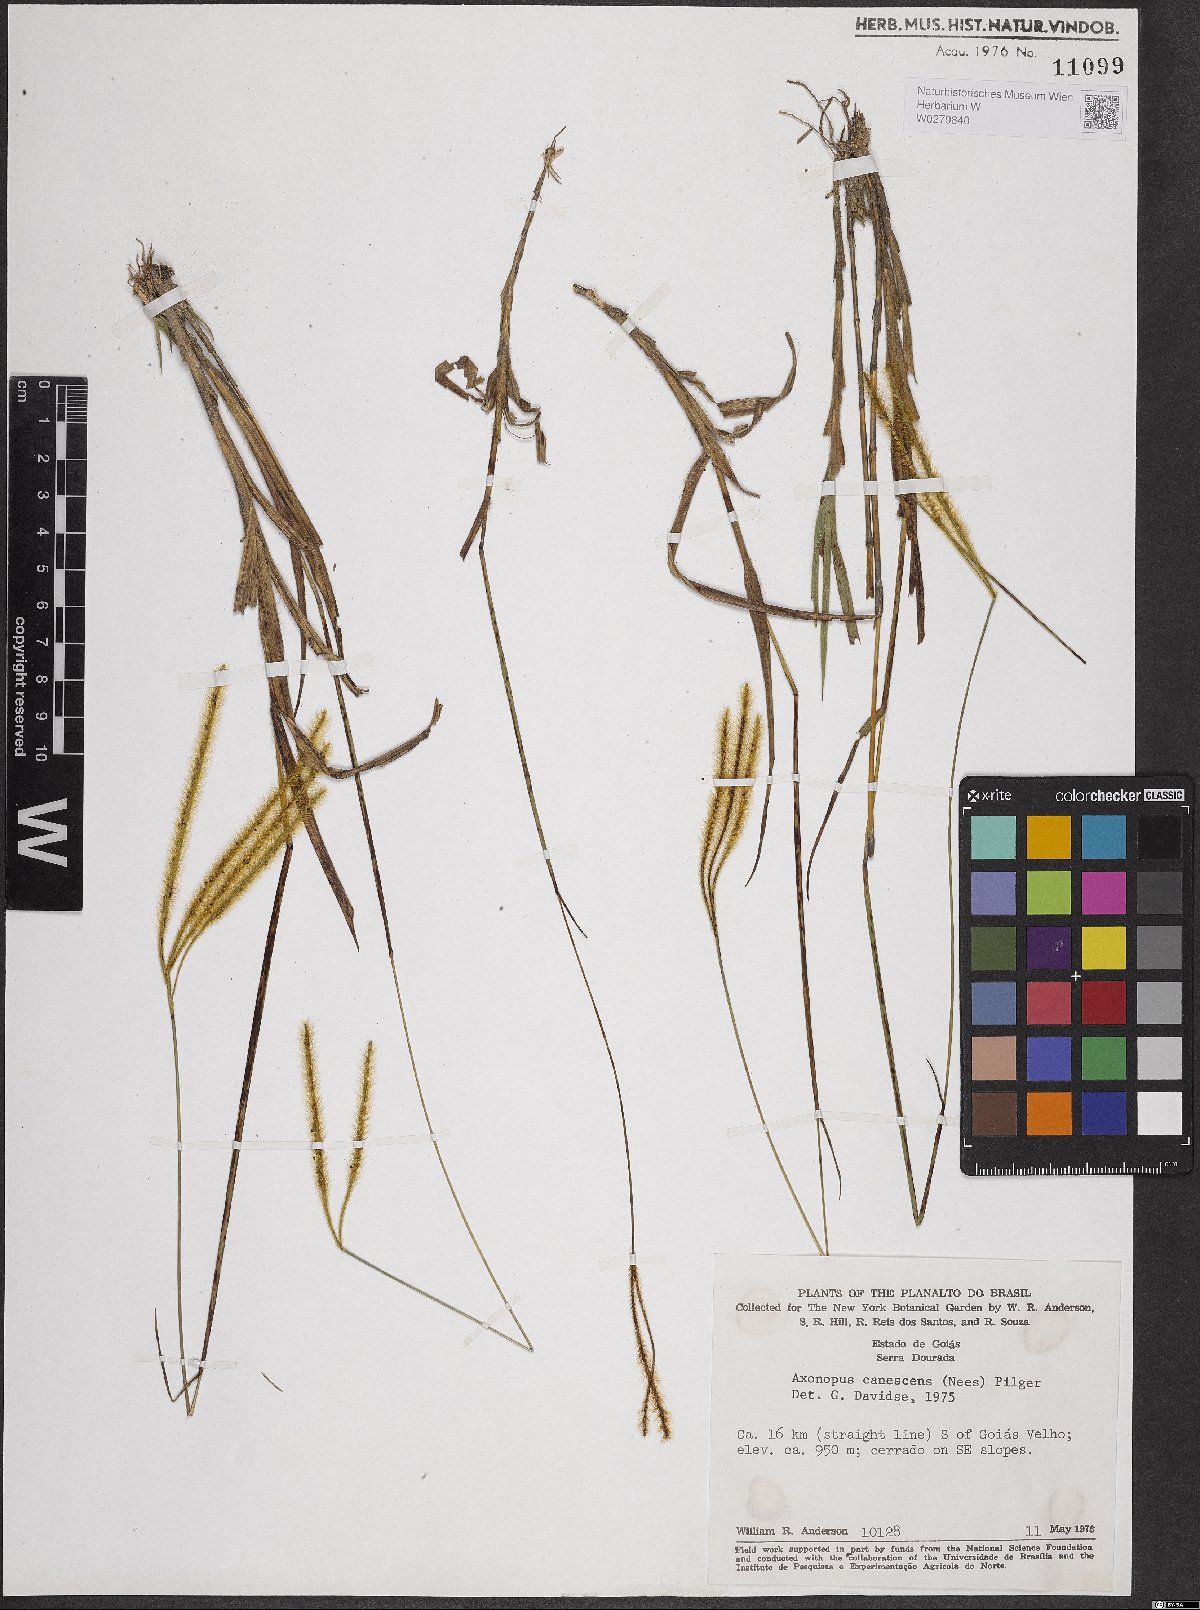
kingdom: Plantae
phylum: Tracheophyta
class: Liliopsida
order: Poales
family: Poaceae
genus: Axonopus
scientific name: Axonopus aureus
